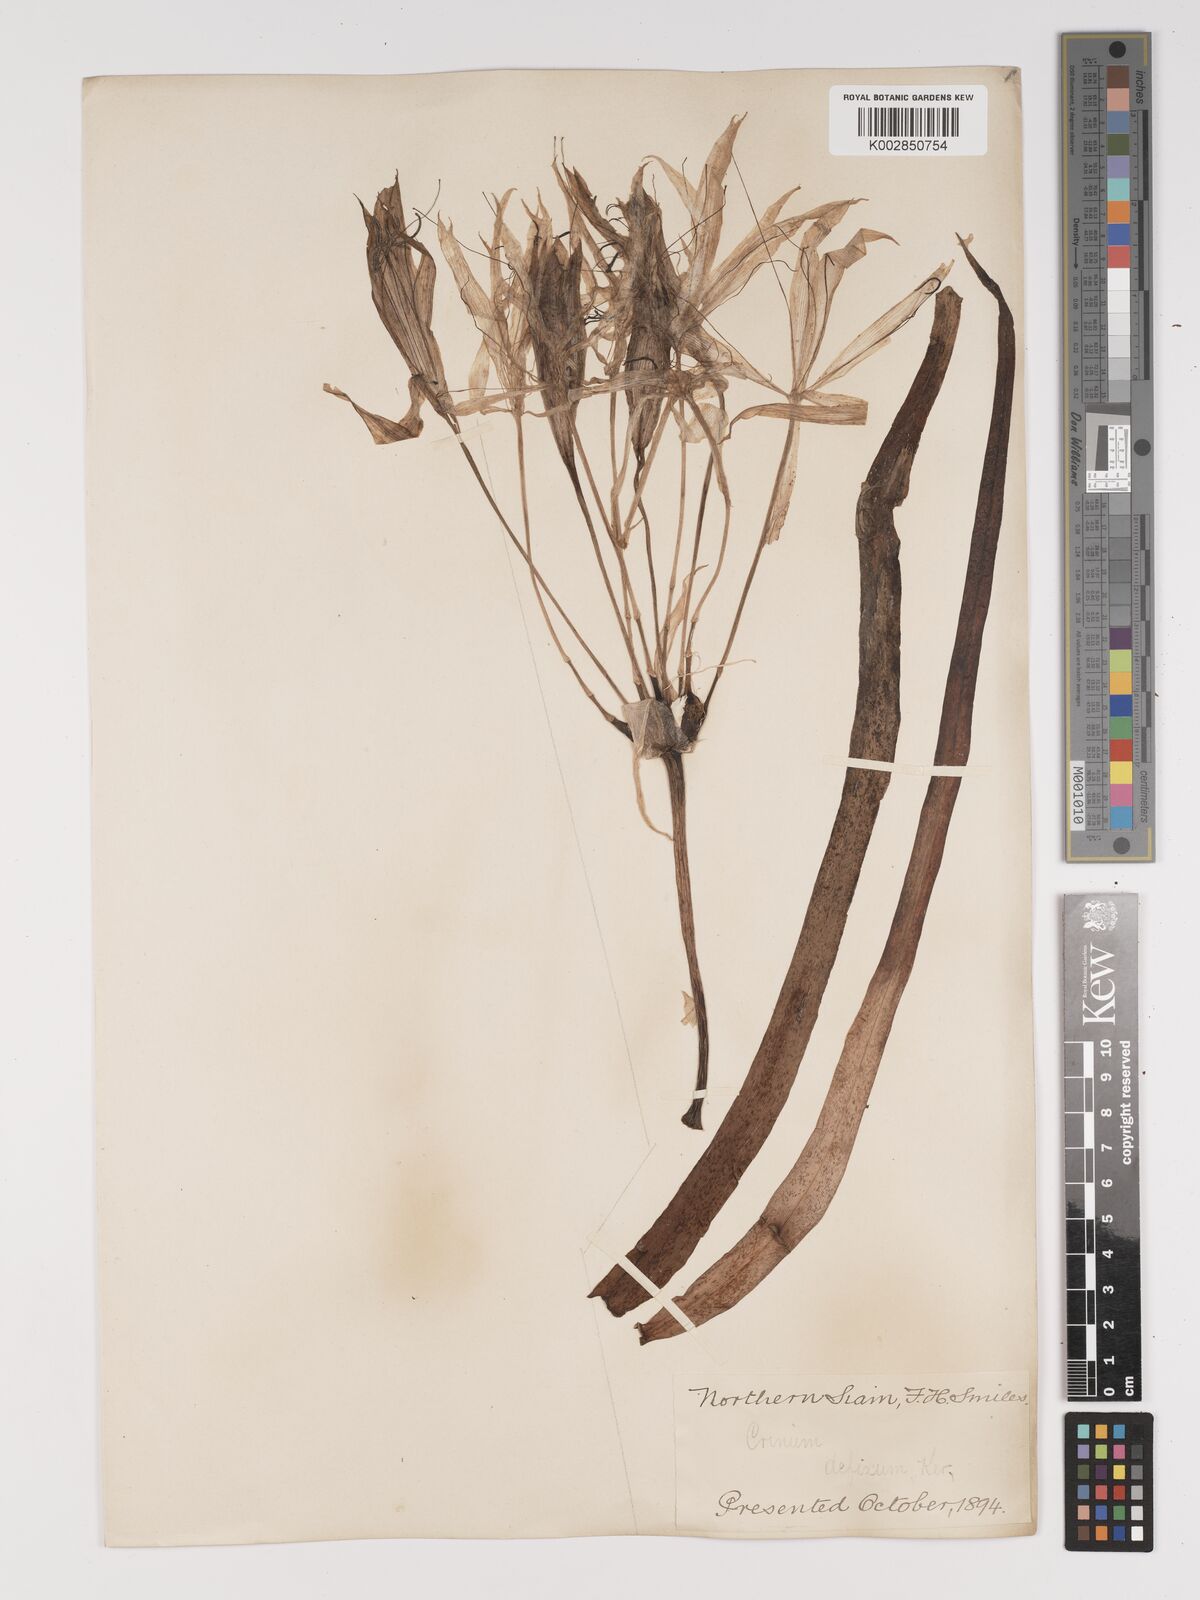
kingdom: Plantae
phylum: Tracheophyta
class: Liliopsida
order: Asparagales
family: Amaryllidaceae
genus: Crinum
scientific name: Crinum defixum
